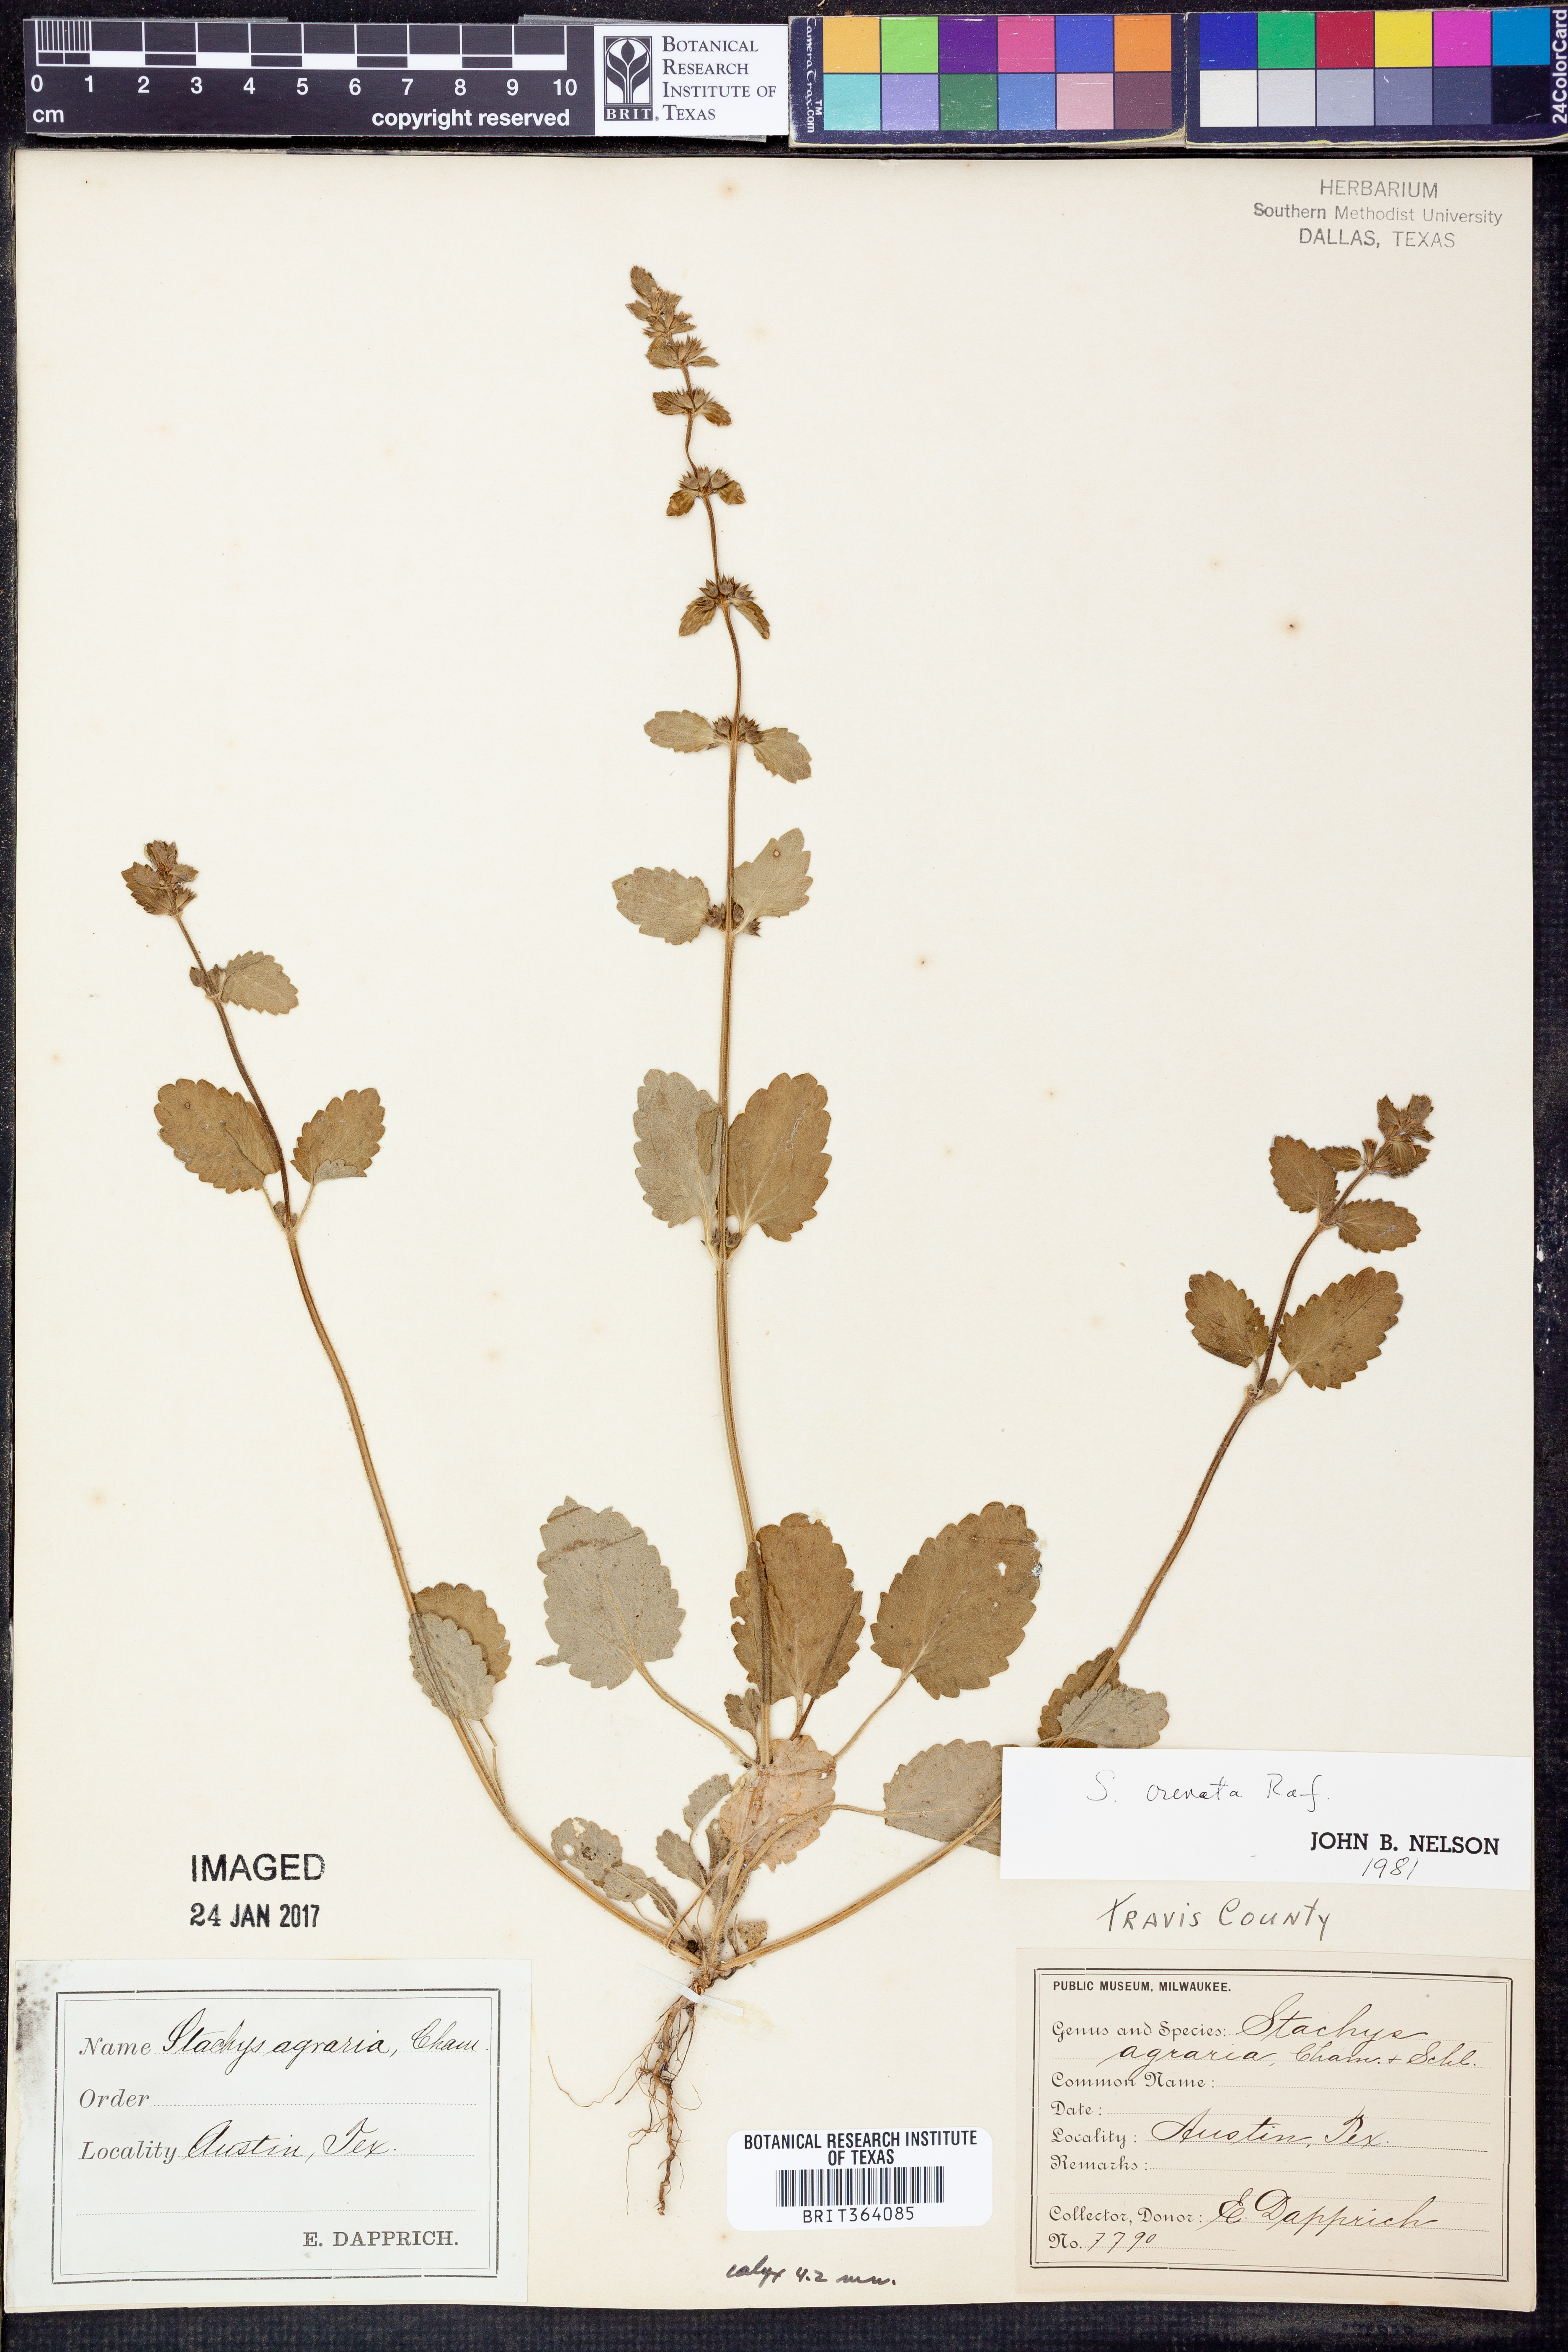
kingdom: Plantae
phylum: Tracheophyta
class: Magnoliopsida
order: Lamiales
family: Lamiaceae
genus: Stachys
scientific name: Stachys agraria
